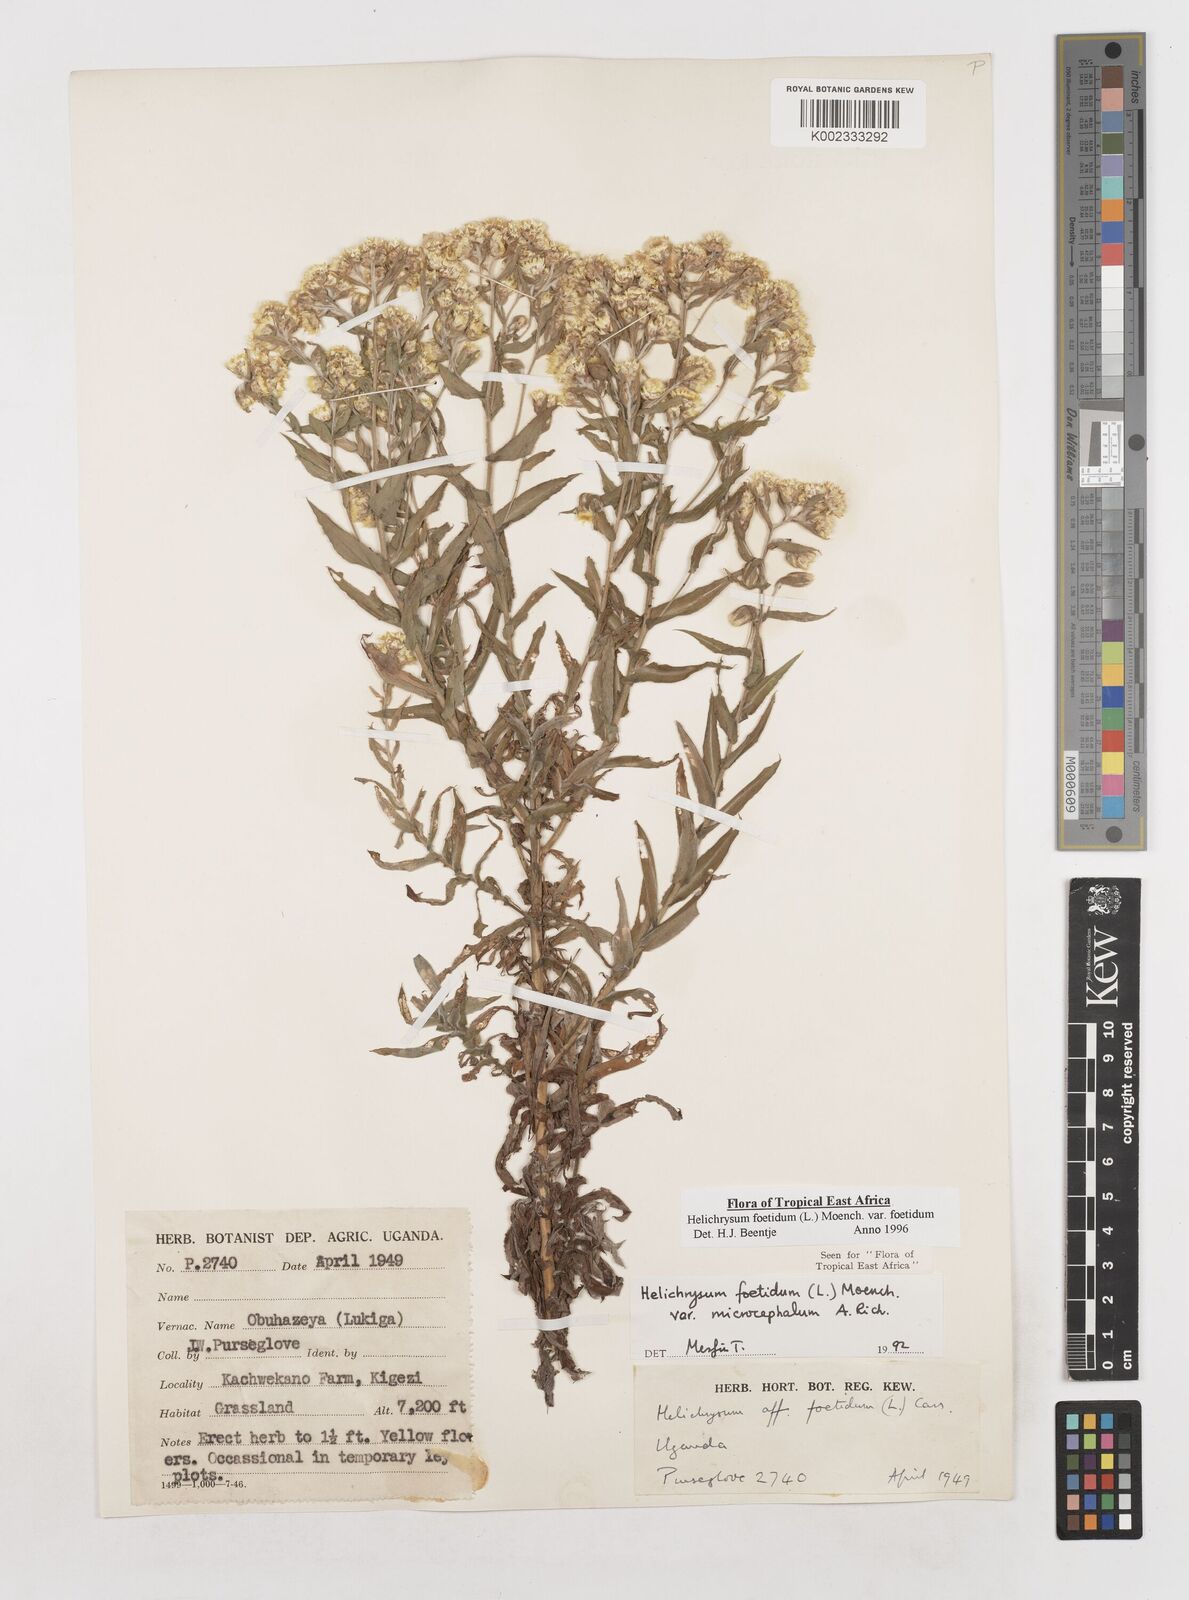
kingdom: Plantae
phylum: Tracheophyta
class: Magnoliopsida
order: Asterales
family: Asteraceae
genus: Helichrysum
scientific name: Helichrysum foetidum
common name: Stinking everlasting
